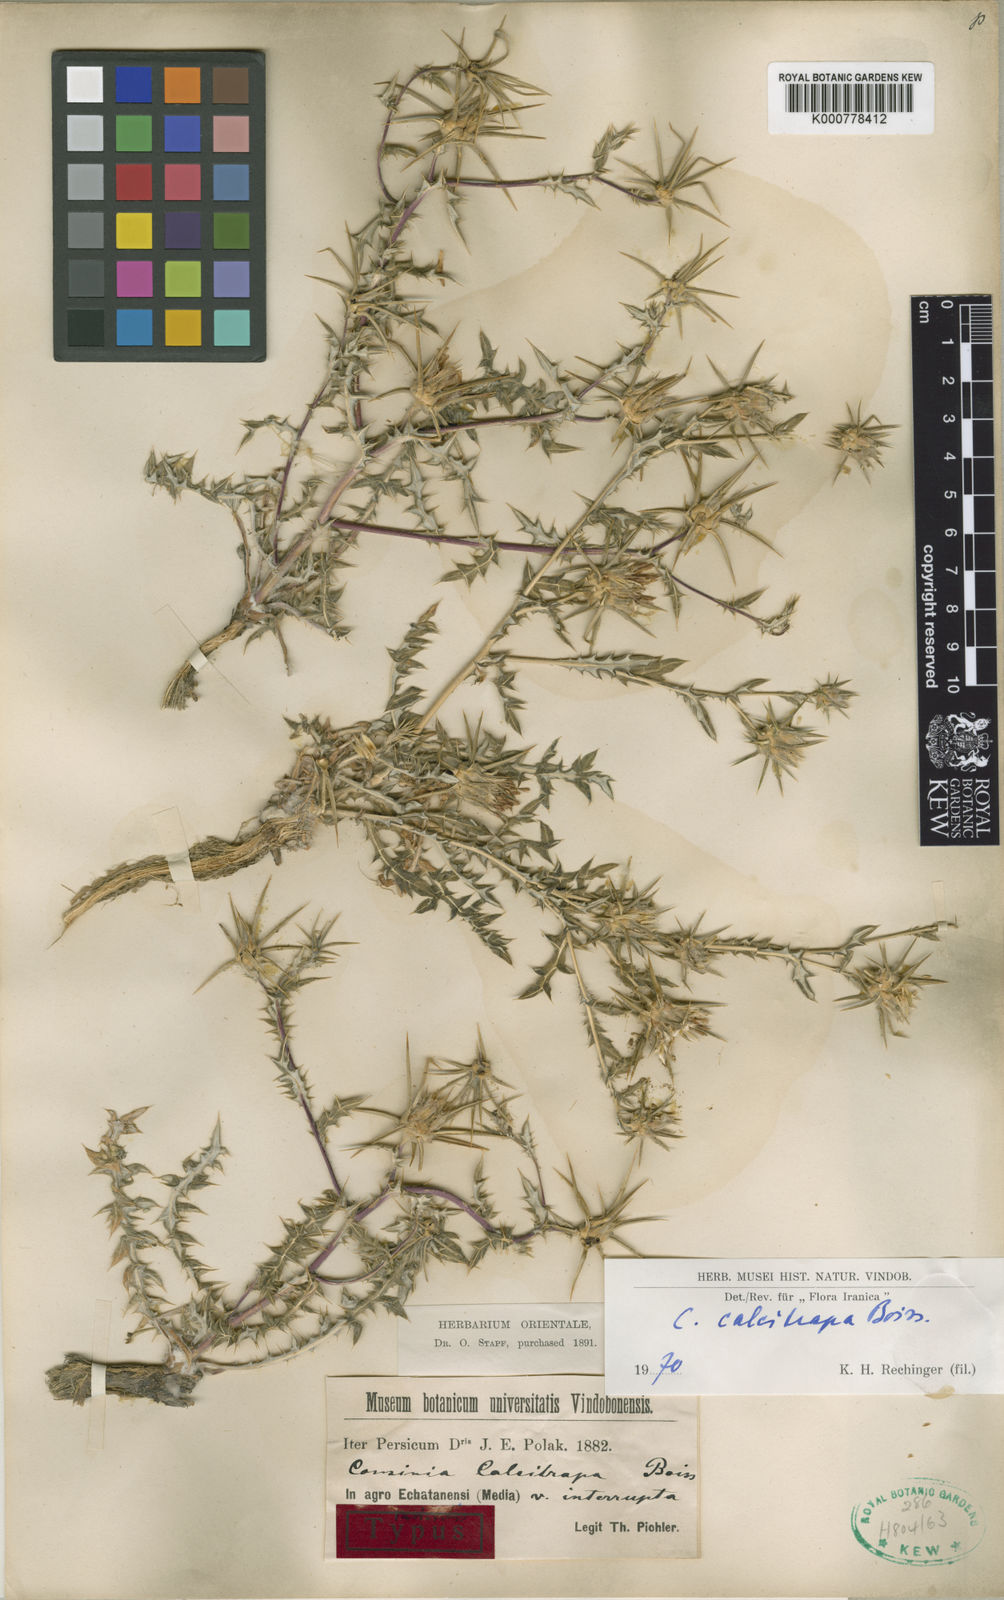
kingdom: Plantae
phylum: Tracheophyta
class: Magnoliopsida
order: Asterales
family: Asteraceae
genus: Cousinia
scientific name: Cousinia calcitrapa
